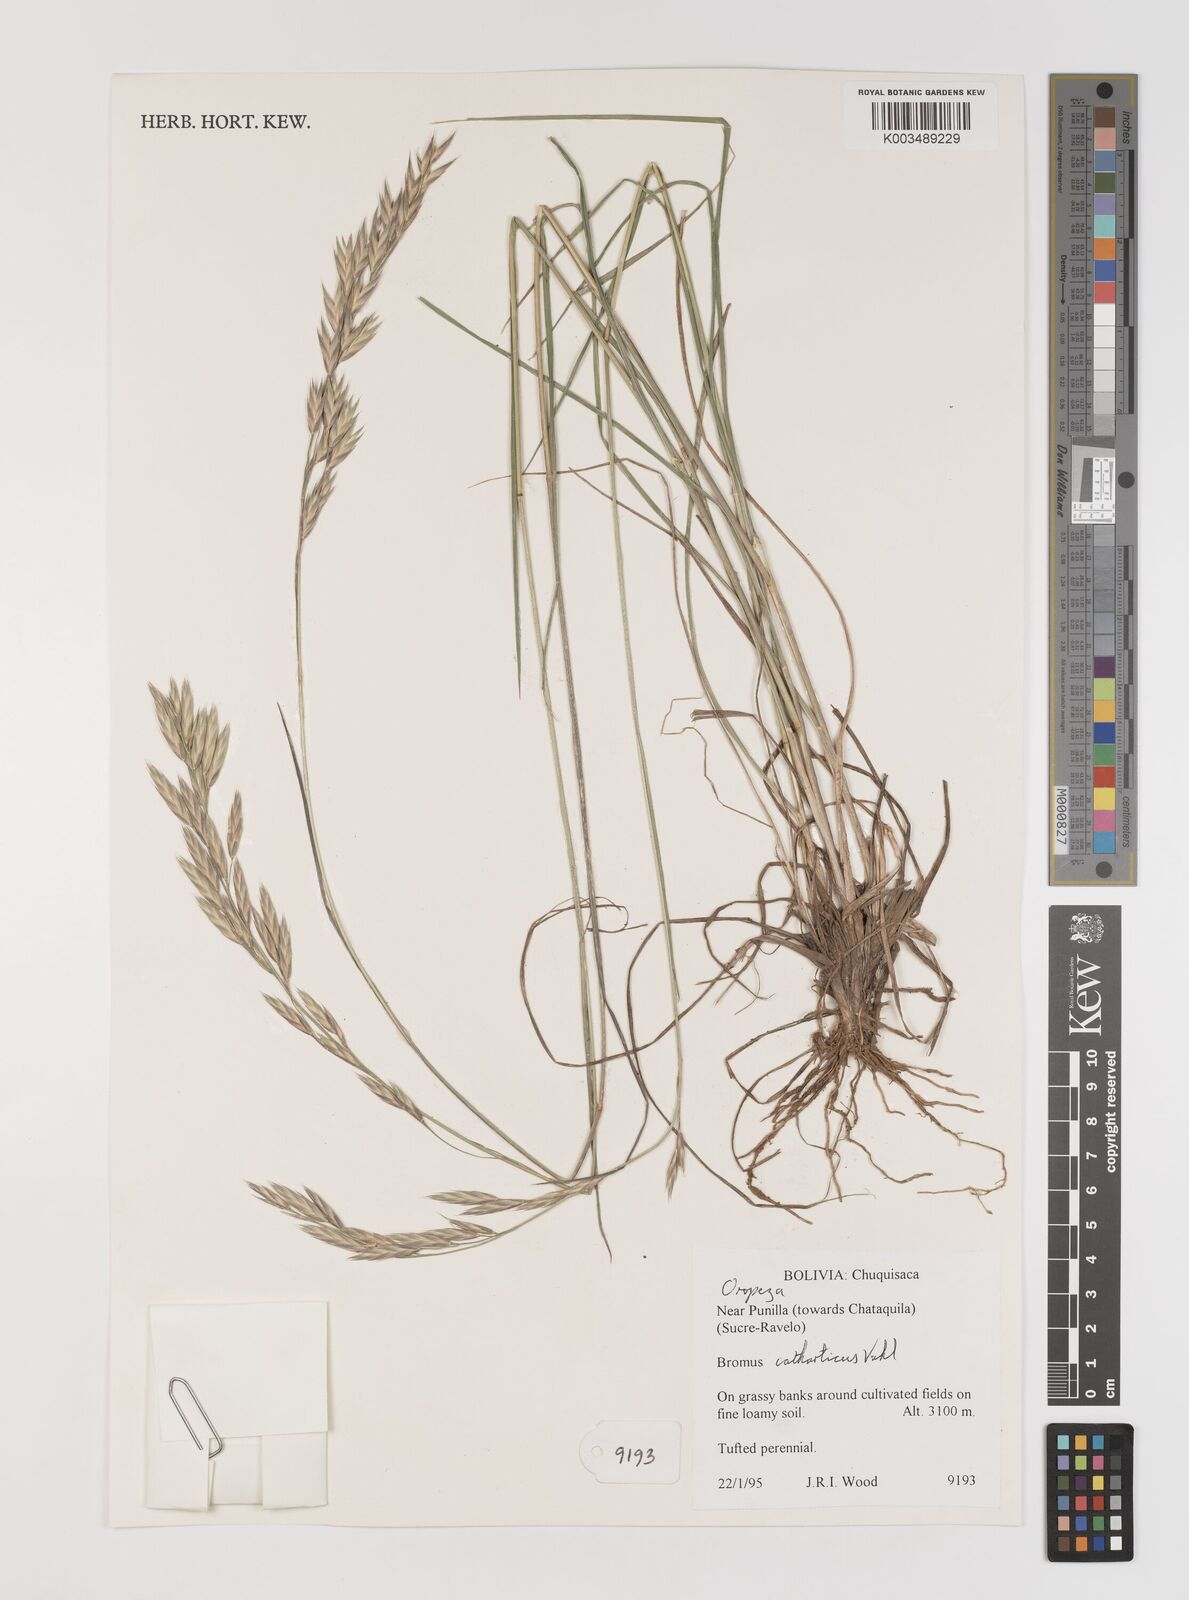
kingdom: Plantae
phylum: Tracheophyta
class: Liliopsida
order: Poales
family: Poaceae
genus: Bromus
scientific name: Bromus catharticus
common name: Rescuegrass
